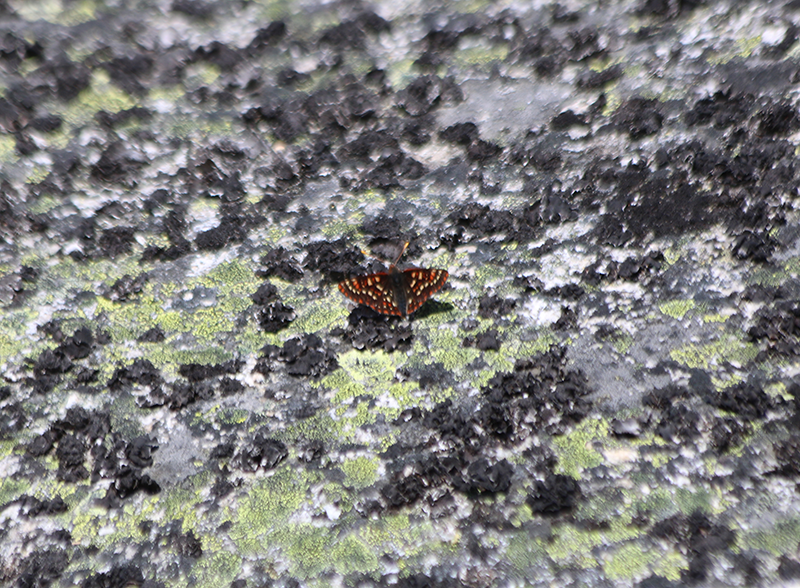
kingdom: Animalia
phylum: Arthropoda
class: Insecta
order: Lepidoptera
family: Nymphalidae
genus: Occidryas
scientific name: Occidryas anicia
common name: Anicia Checkerspot
